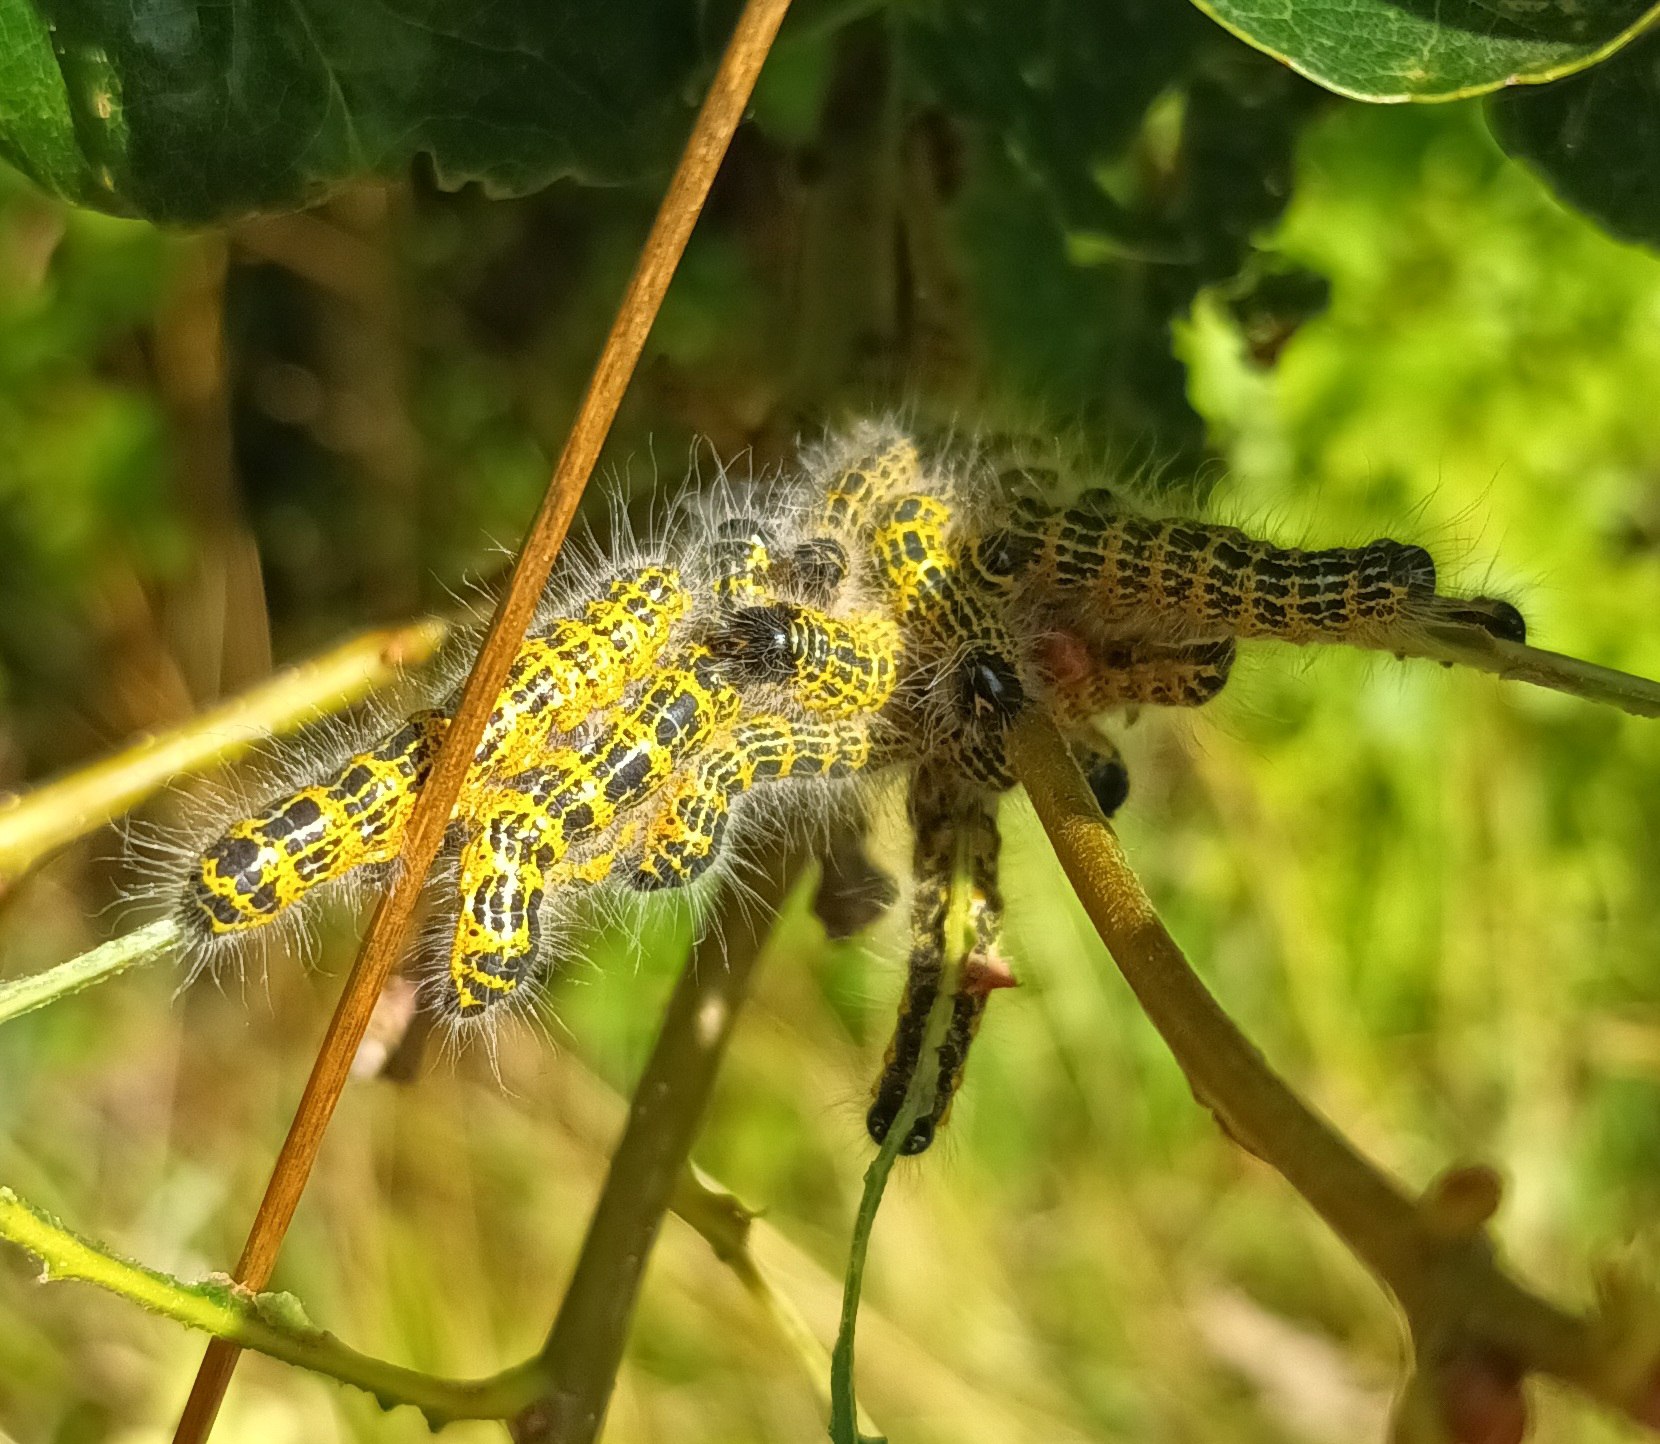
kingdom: Animalia
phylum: Arthropoda
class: Insecta
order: Lepidoptera
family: Notodontidae
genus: Phalera
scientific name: Phalera bucephala
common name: Måneplet
